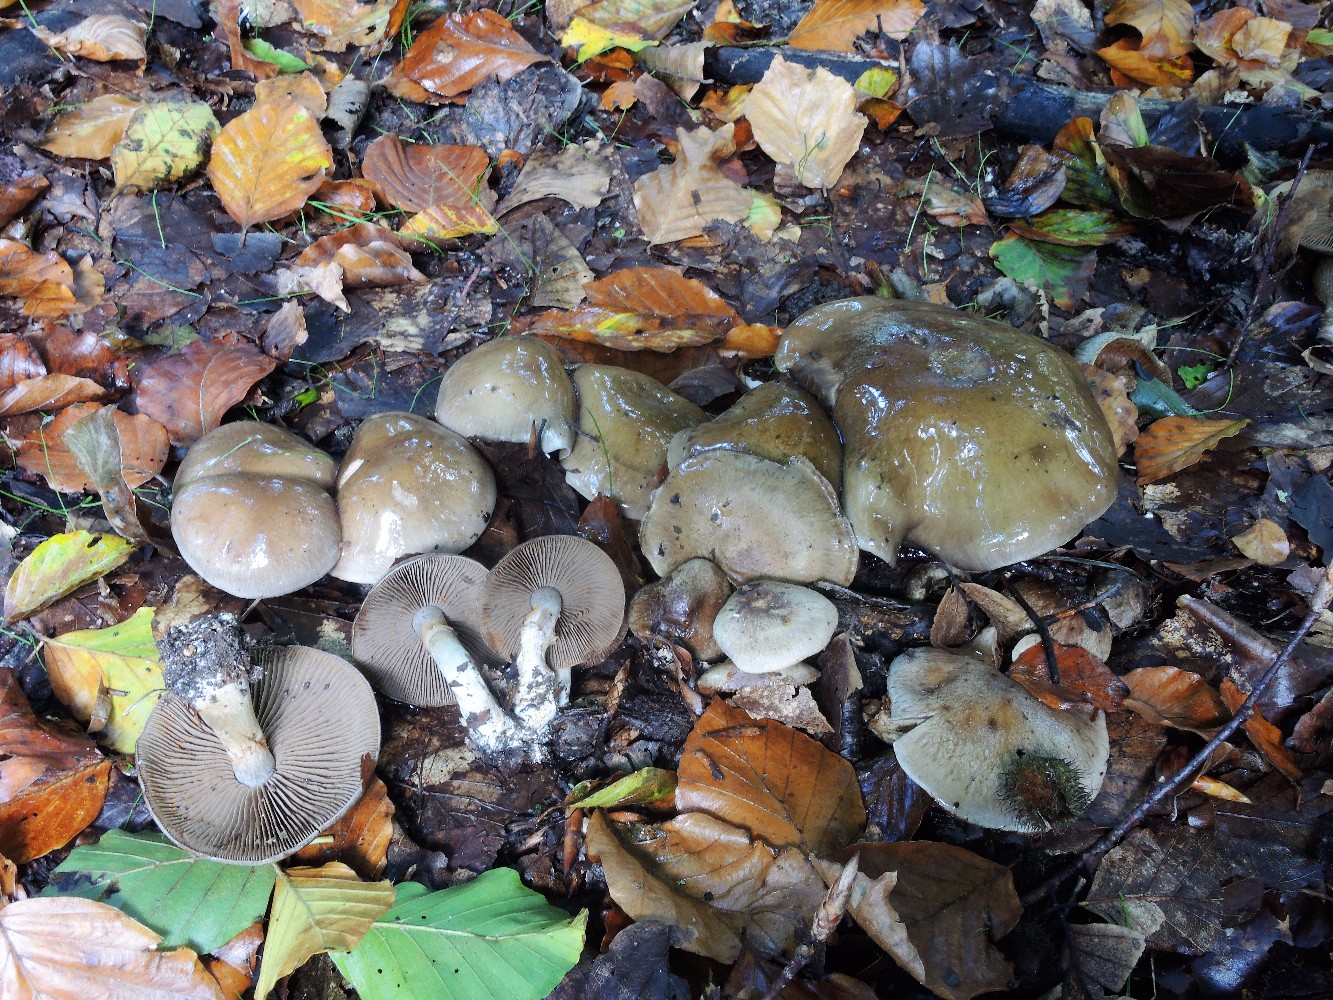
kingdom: Fungi
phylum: Basidiomycota
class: Agaricomycetes
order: Agaricales
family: Cortinariaceae
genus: Cortinarius
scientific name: Cortinarius
